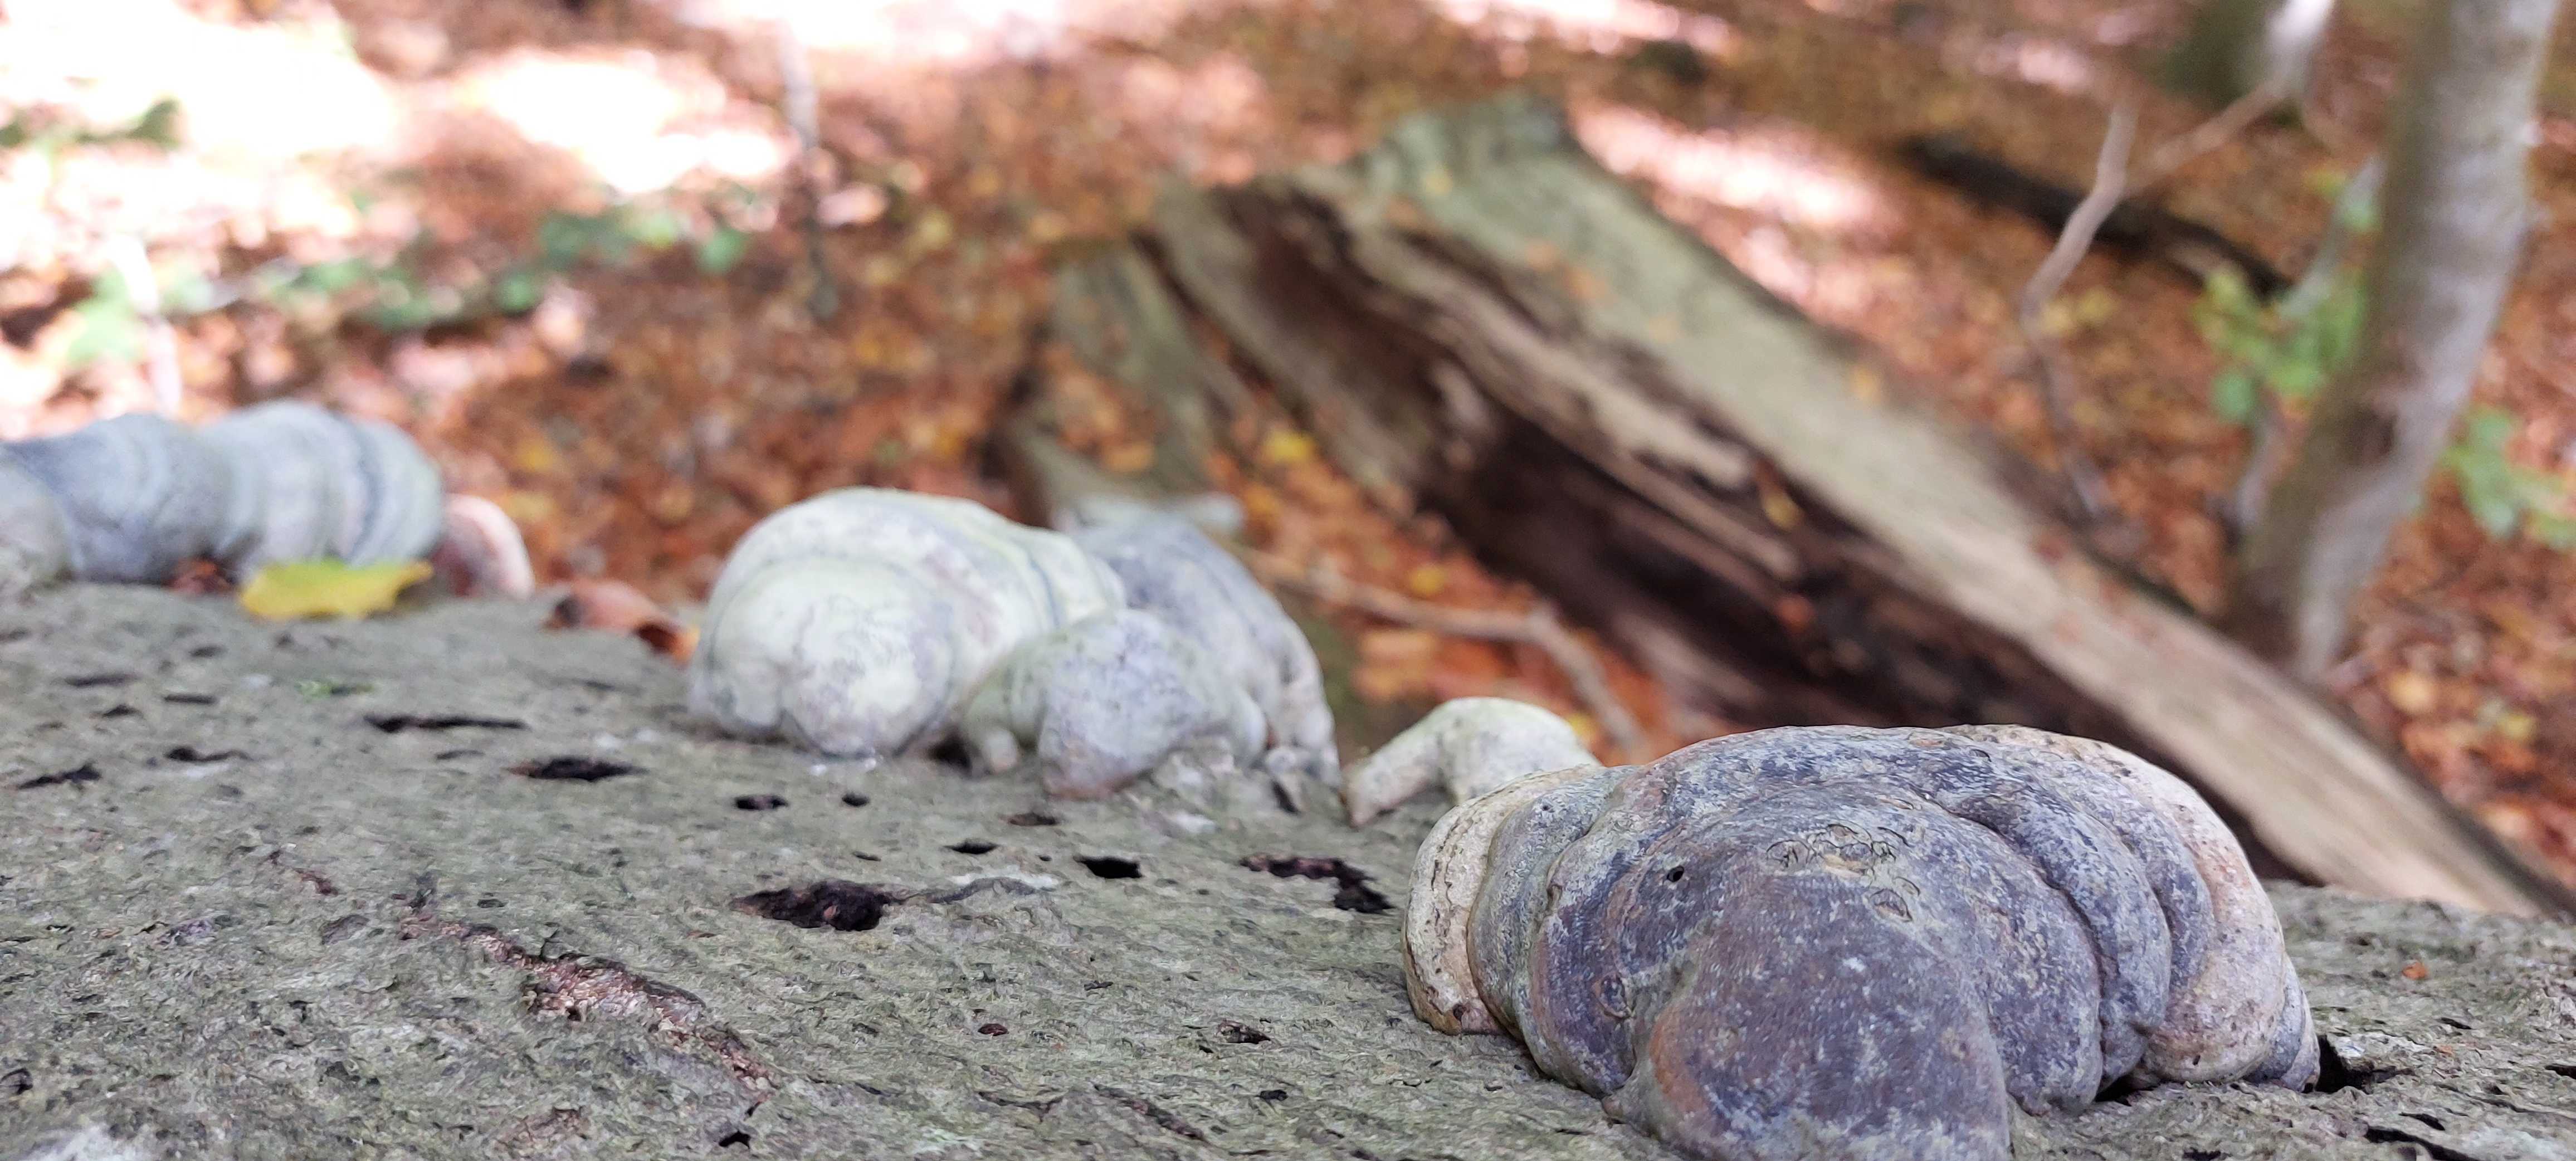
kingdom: Fungi
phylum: Basidiomycota
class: Agaricomycetes
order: Polyporales
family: Polyporaceae
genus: Fomes
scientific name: Fomes fomentarius
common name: tøndersvamp
